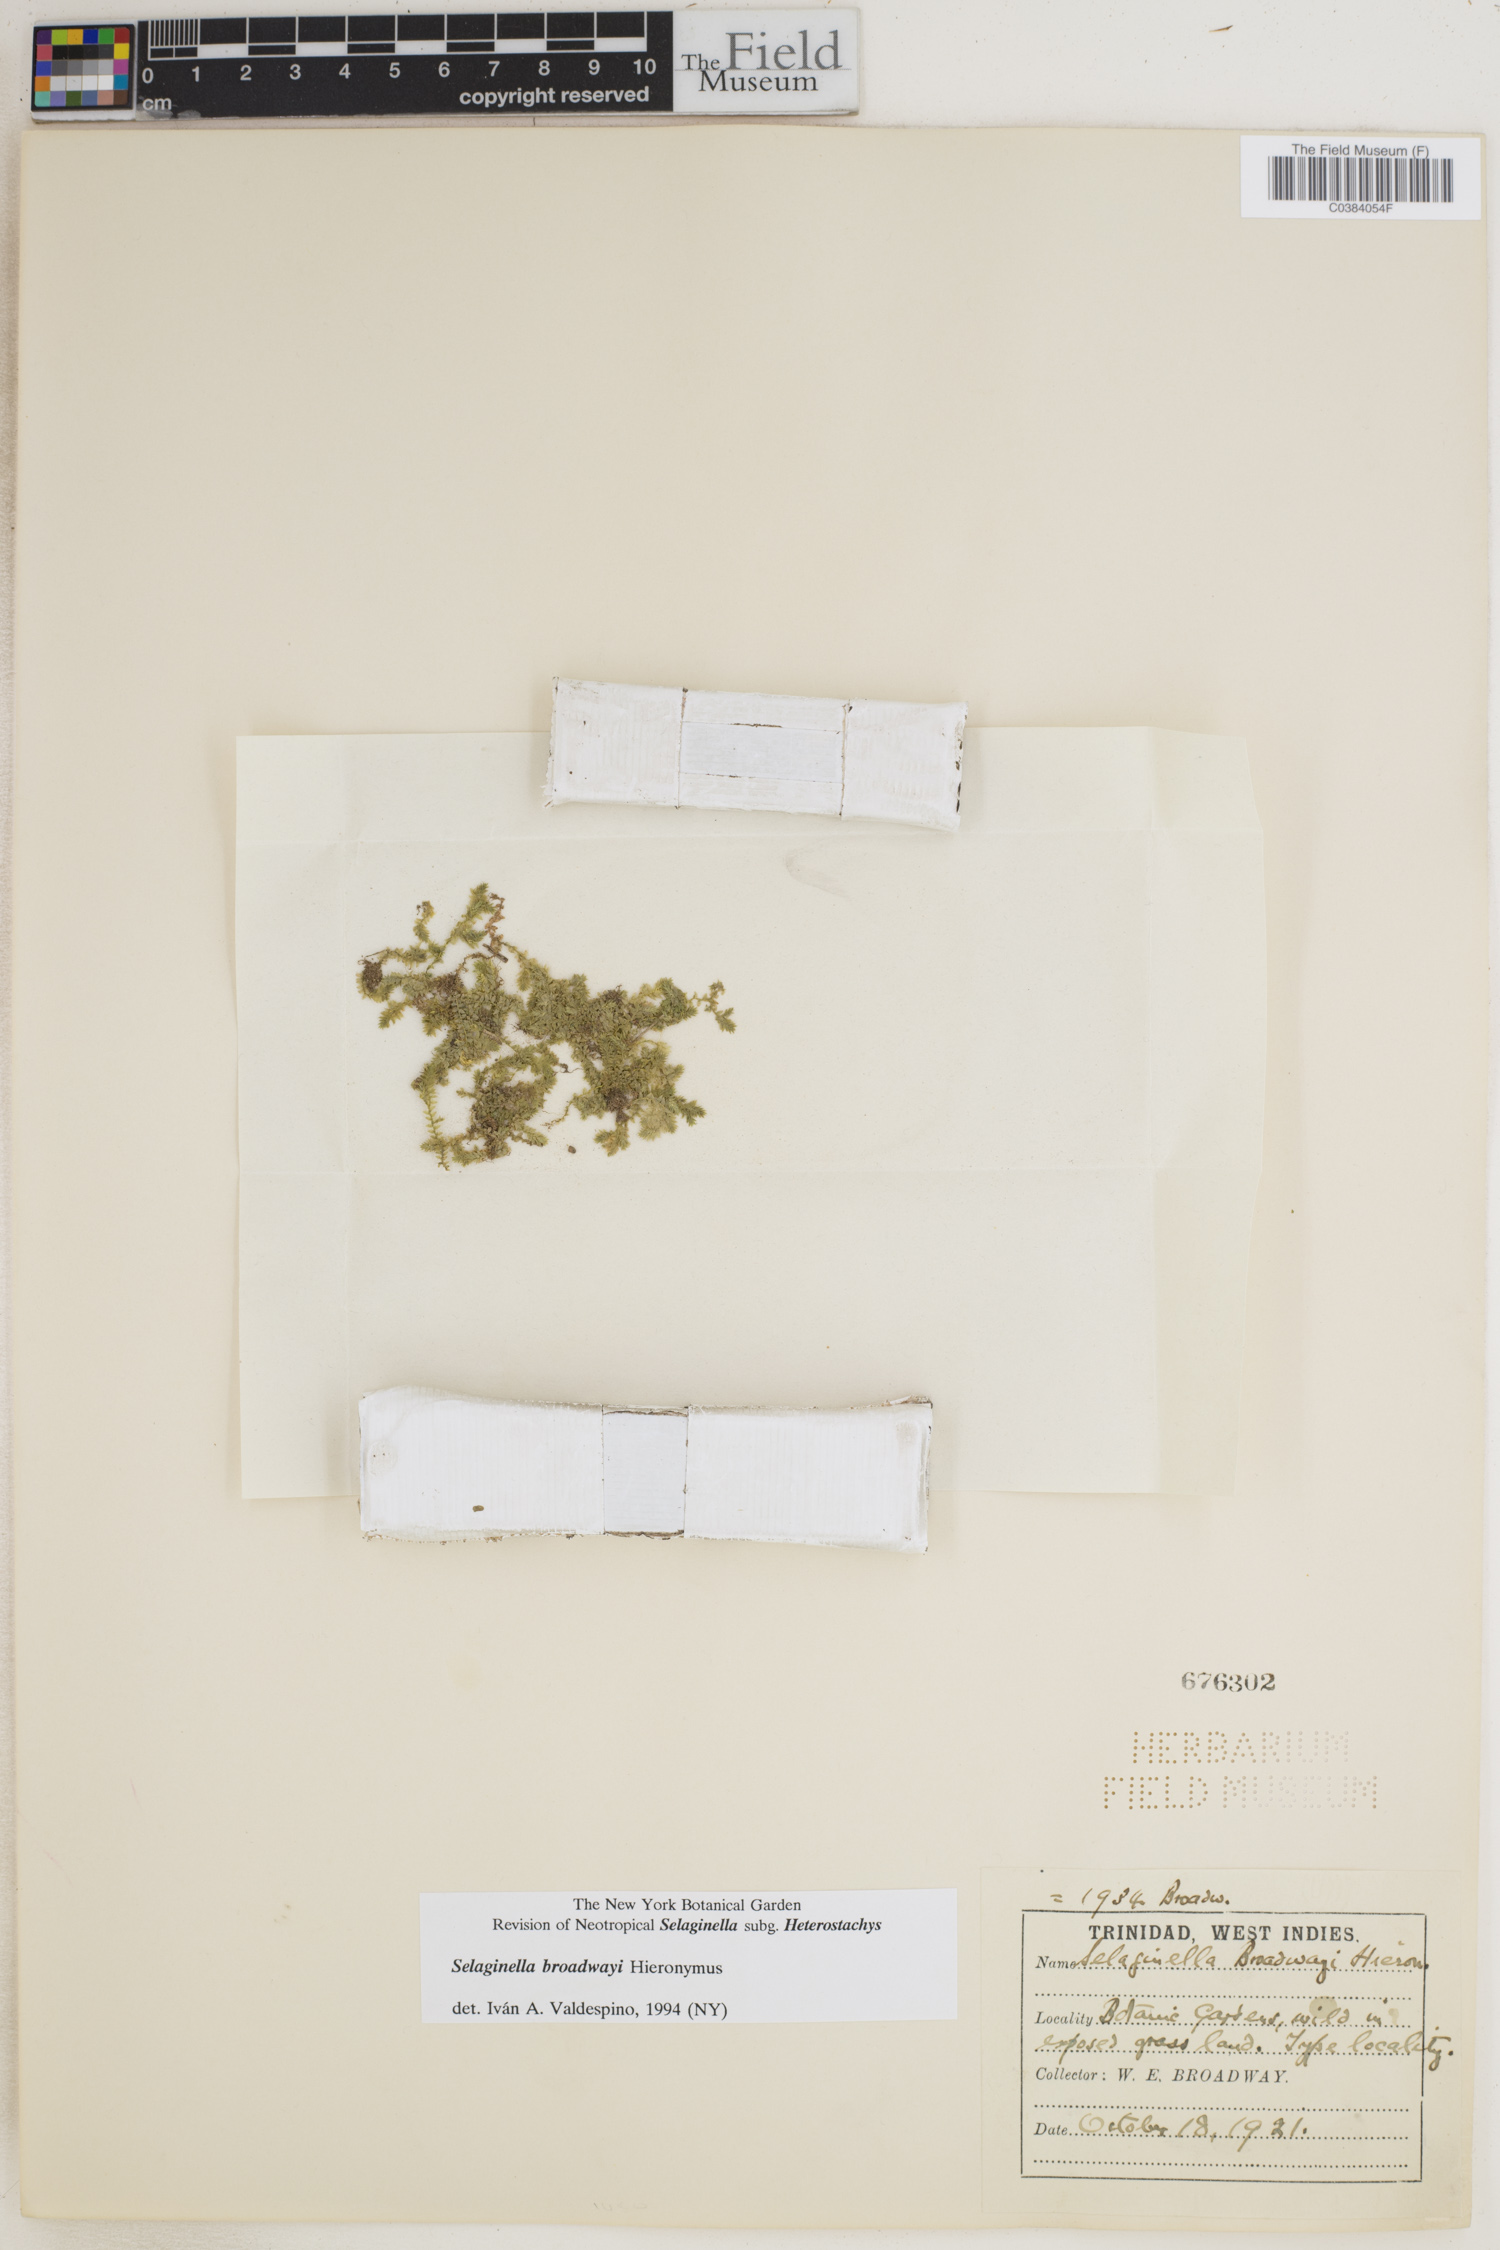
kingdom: Plantae
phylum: Tracheophyta
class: Lycopodiopsida
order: Selaginellales
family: Selaginellaceae
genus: Selaginella
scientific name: Selaginella minima
